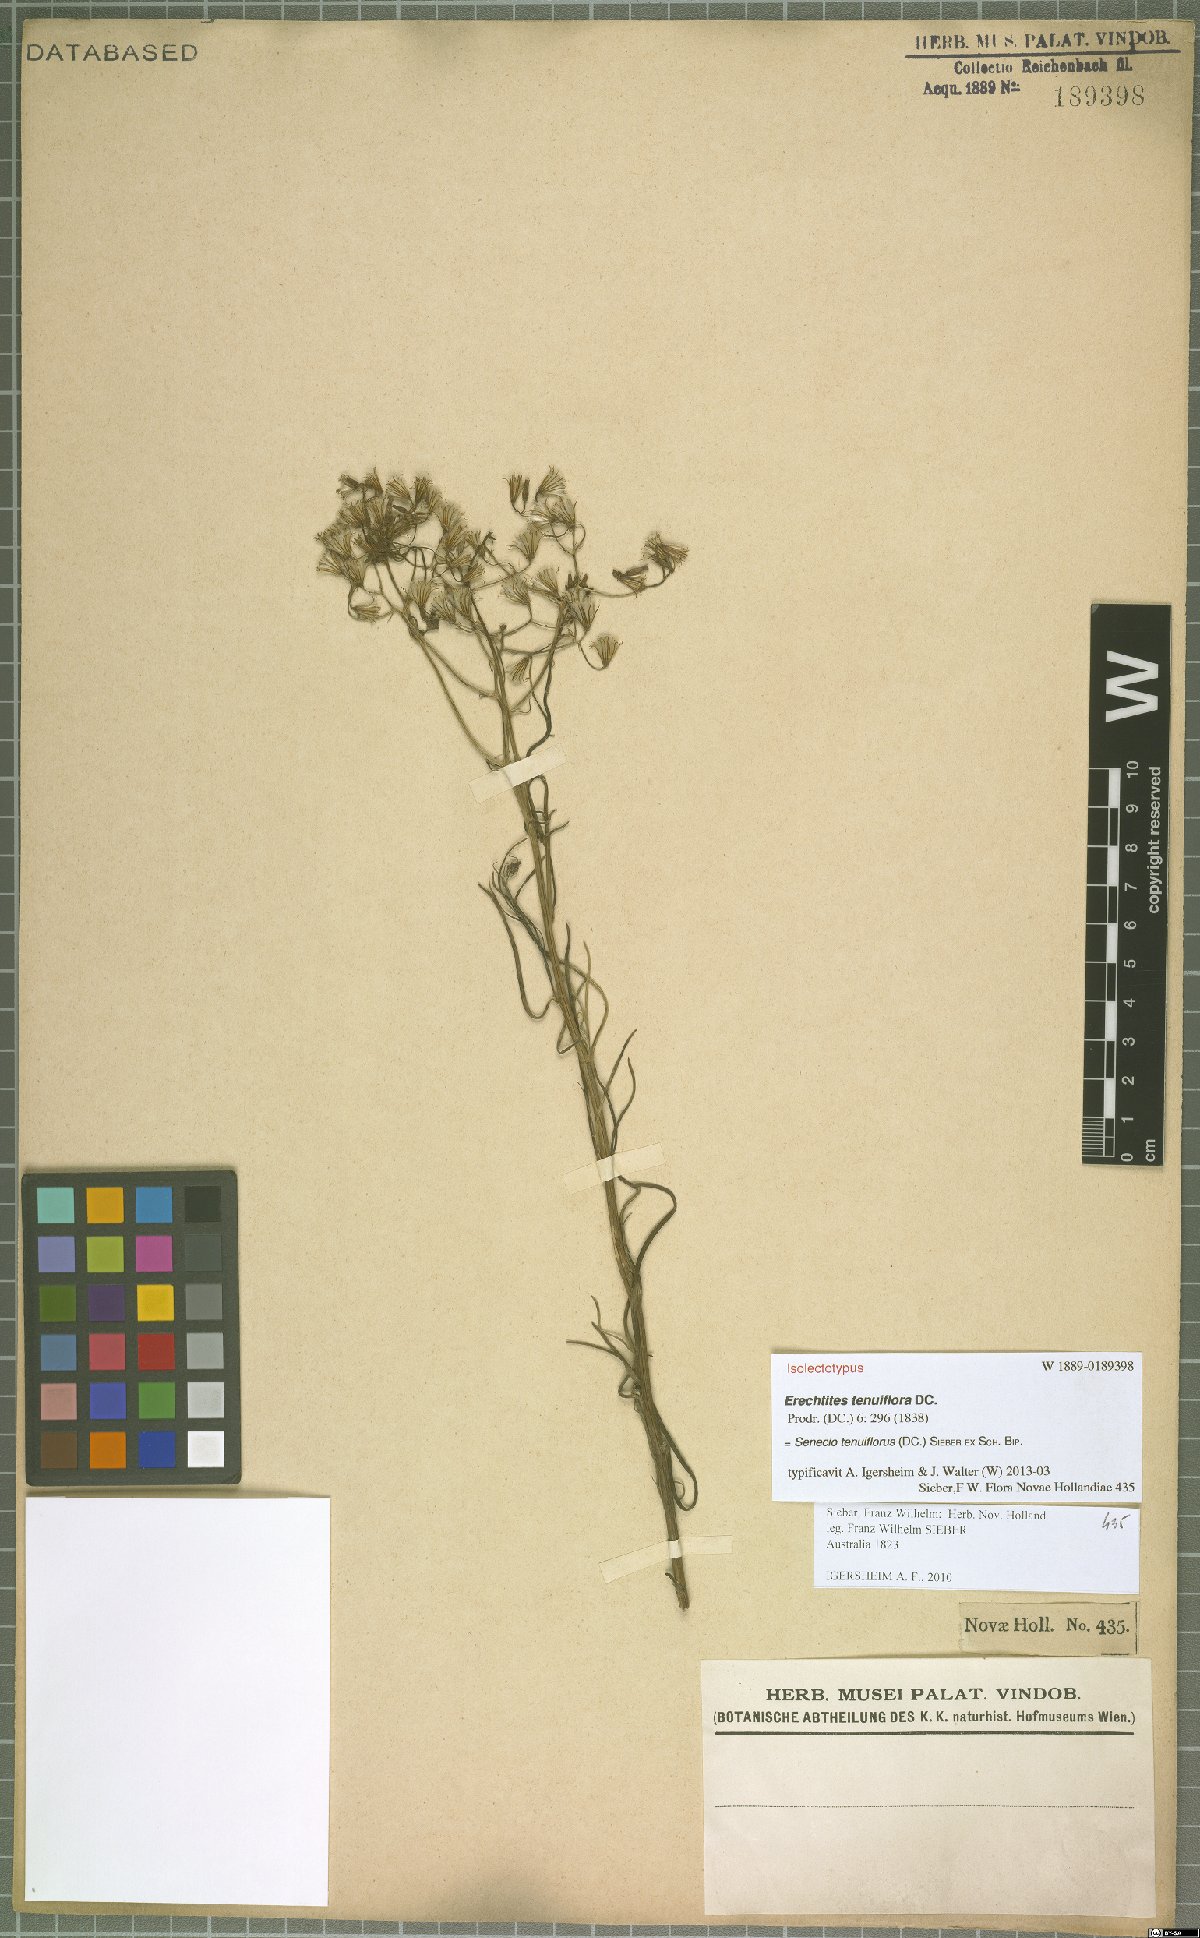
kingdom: Plantae
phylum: Tracheophyta
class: Magnoliopsida
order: Asterales
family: Asteraceae
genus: Senecio
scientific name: Senecio tenuiflorus
